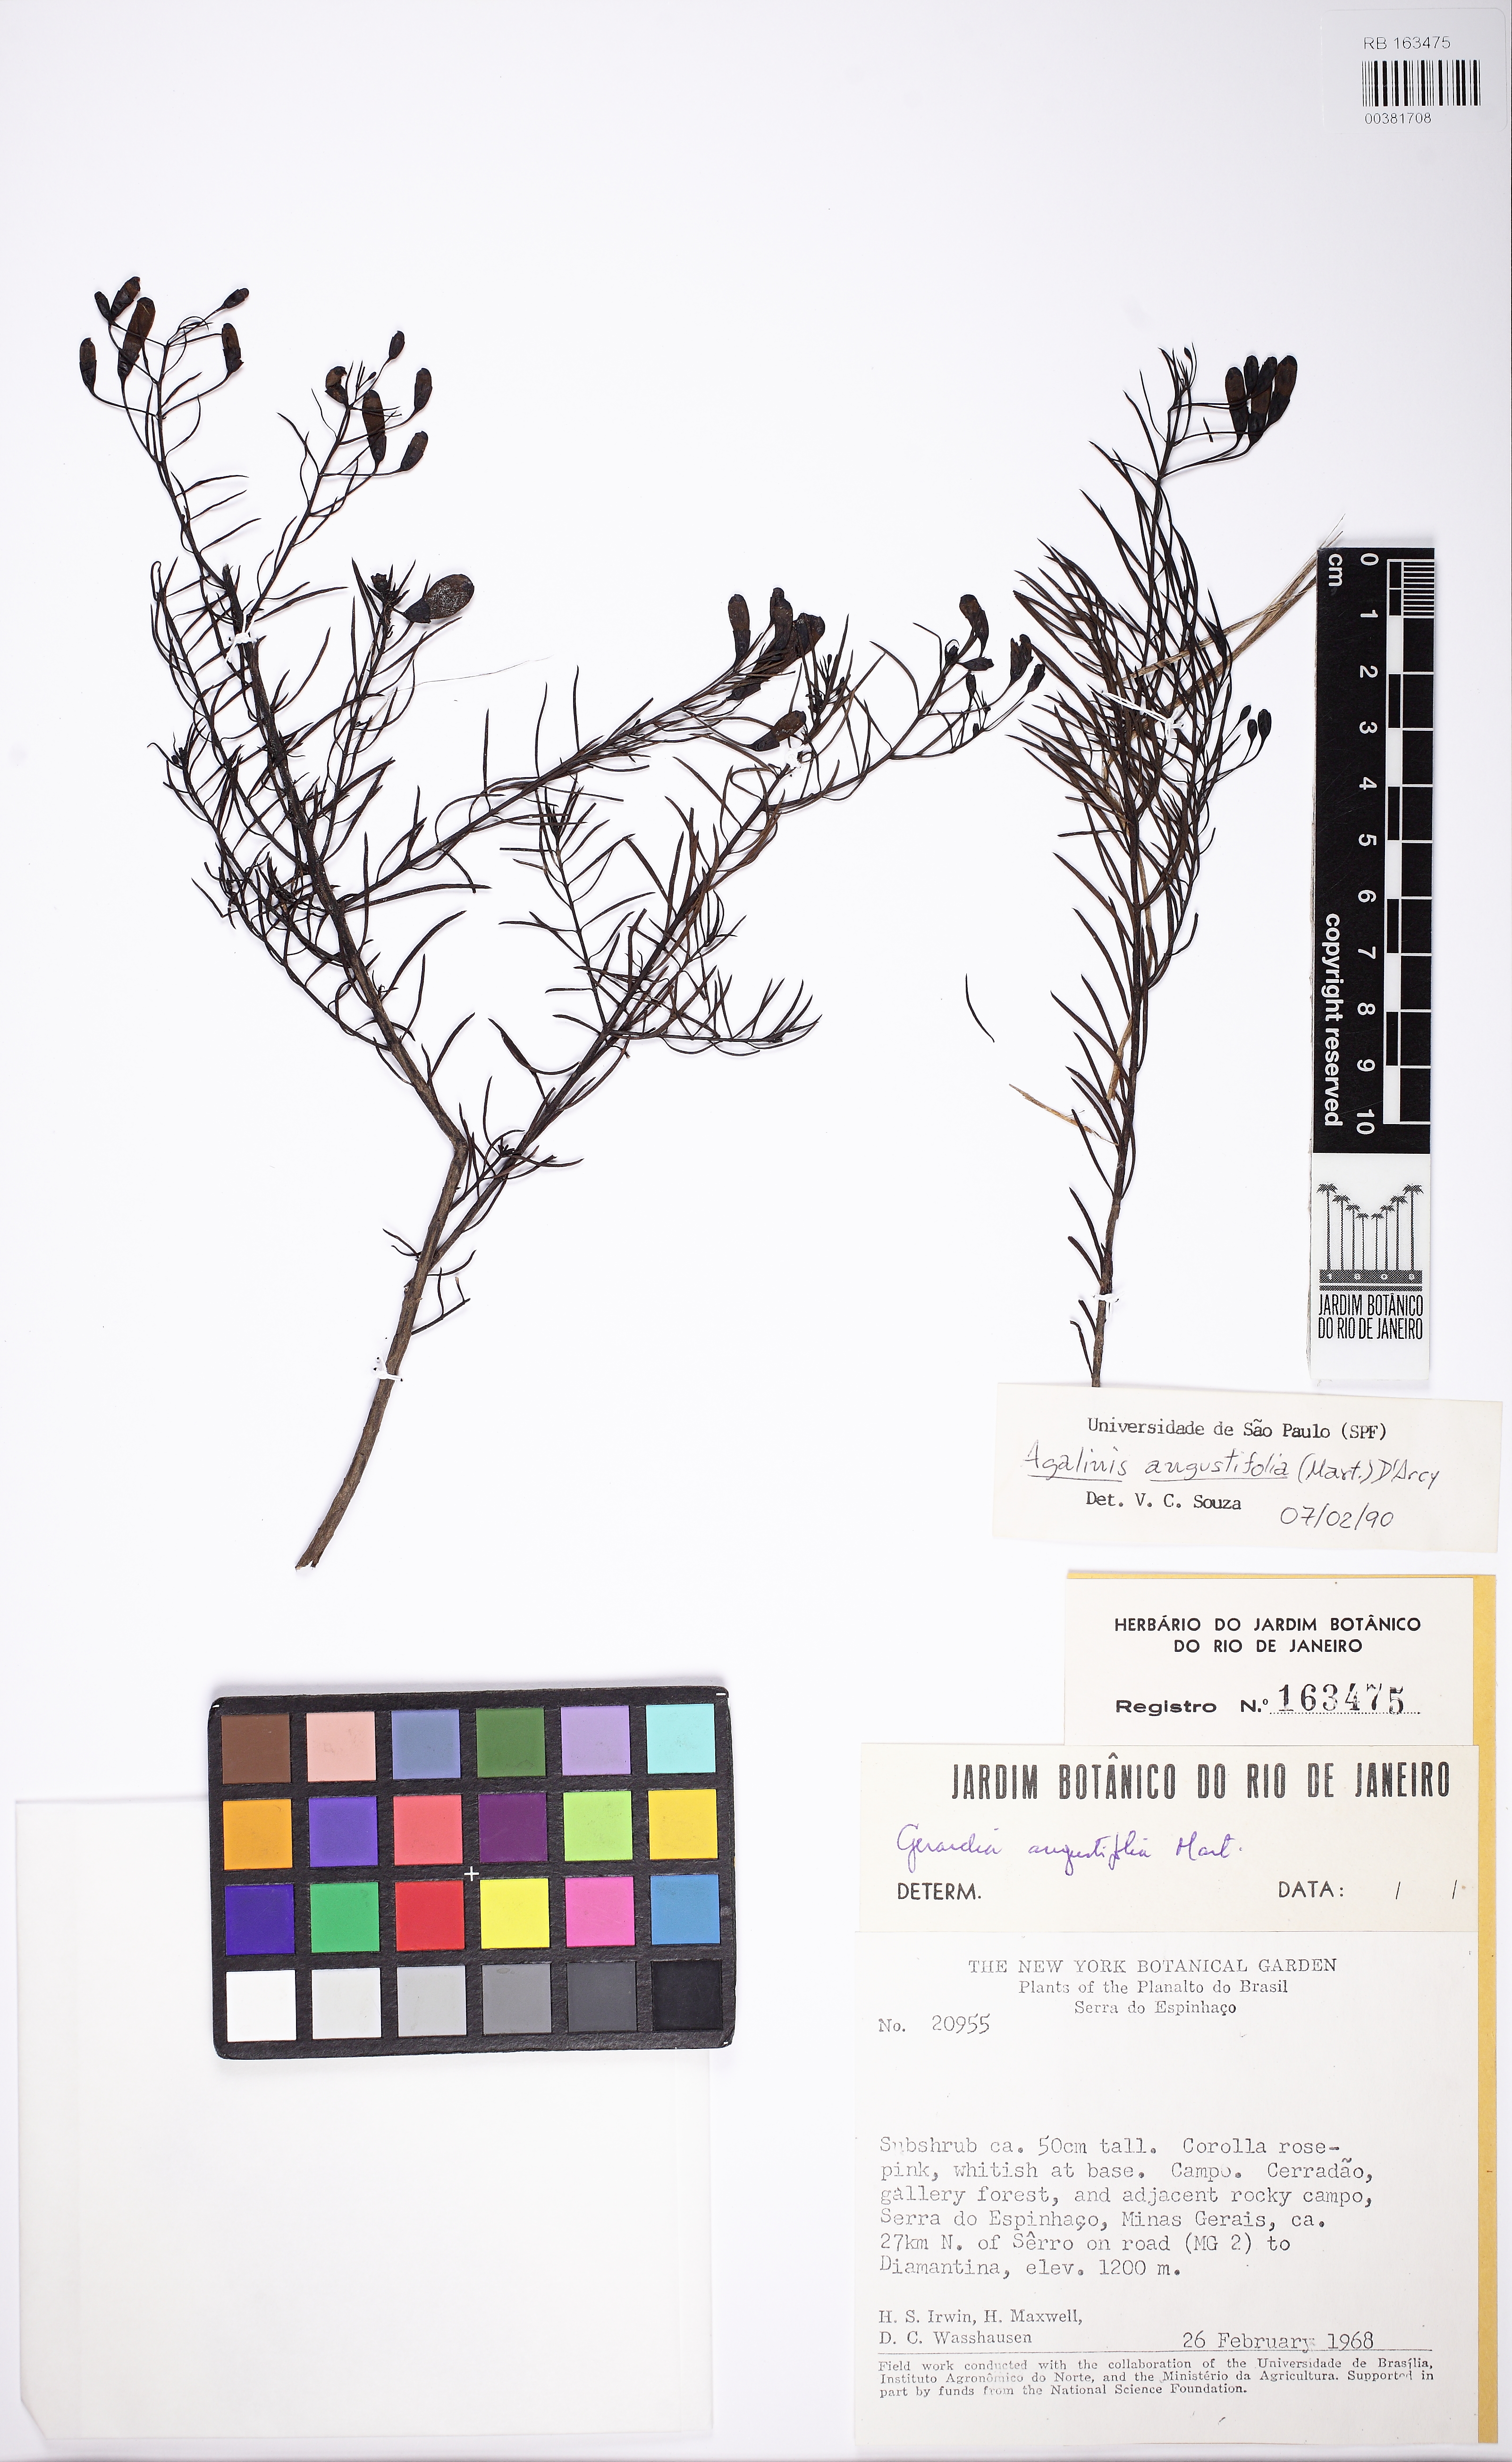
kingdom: Plantae
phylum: Tracheophyta
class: Magnoliopsida
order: Lamiales
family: Scrophulariaceae
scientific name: Scrophulariaceae
